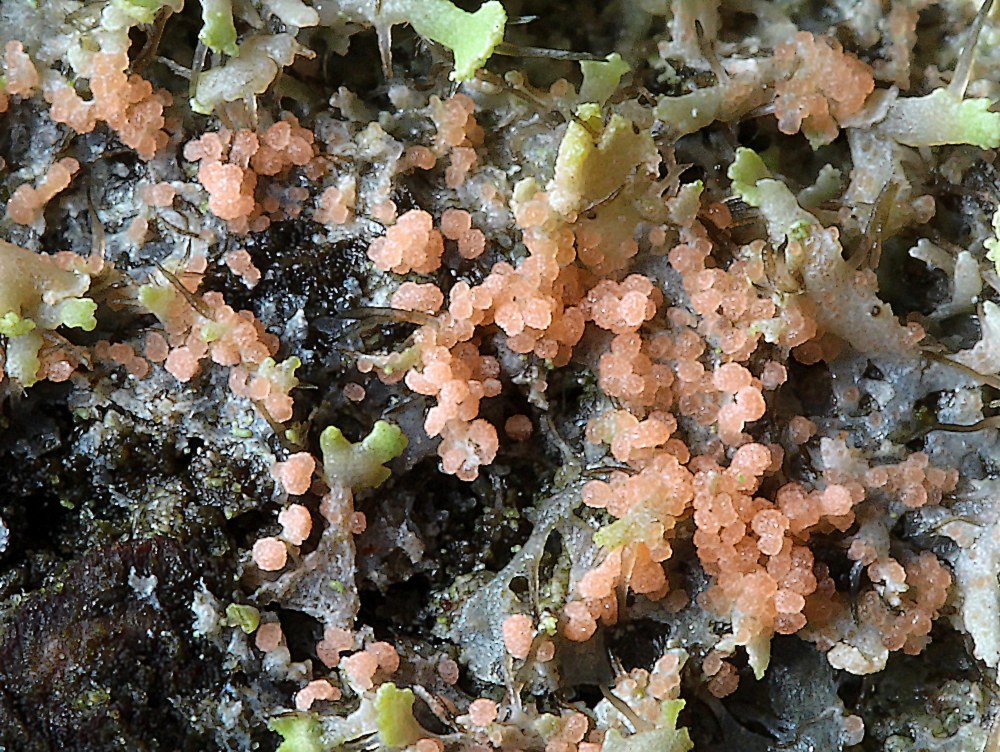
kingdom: Fungi
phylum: Basidiomycota
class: Agaricomycetes
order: Corticiales
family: Corticiaceae
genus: Erythricium
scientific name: Erythricium aurantiacum
